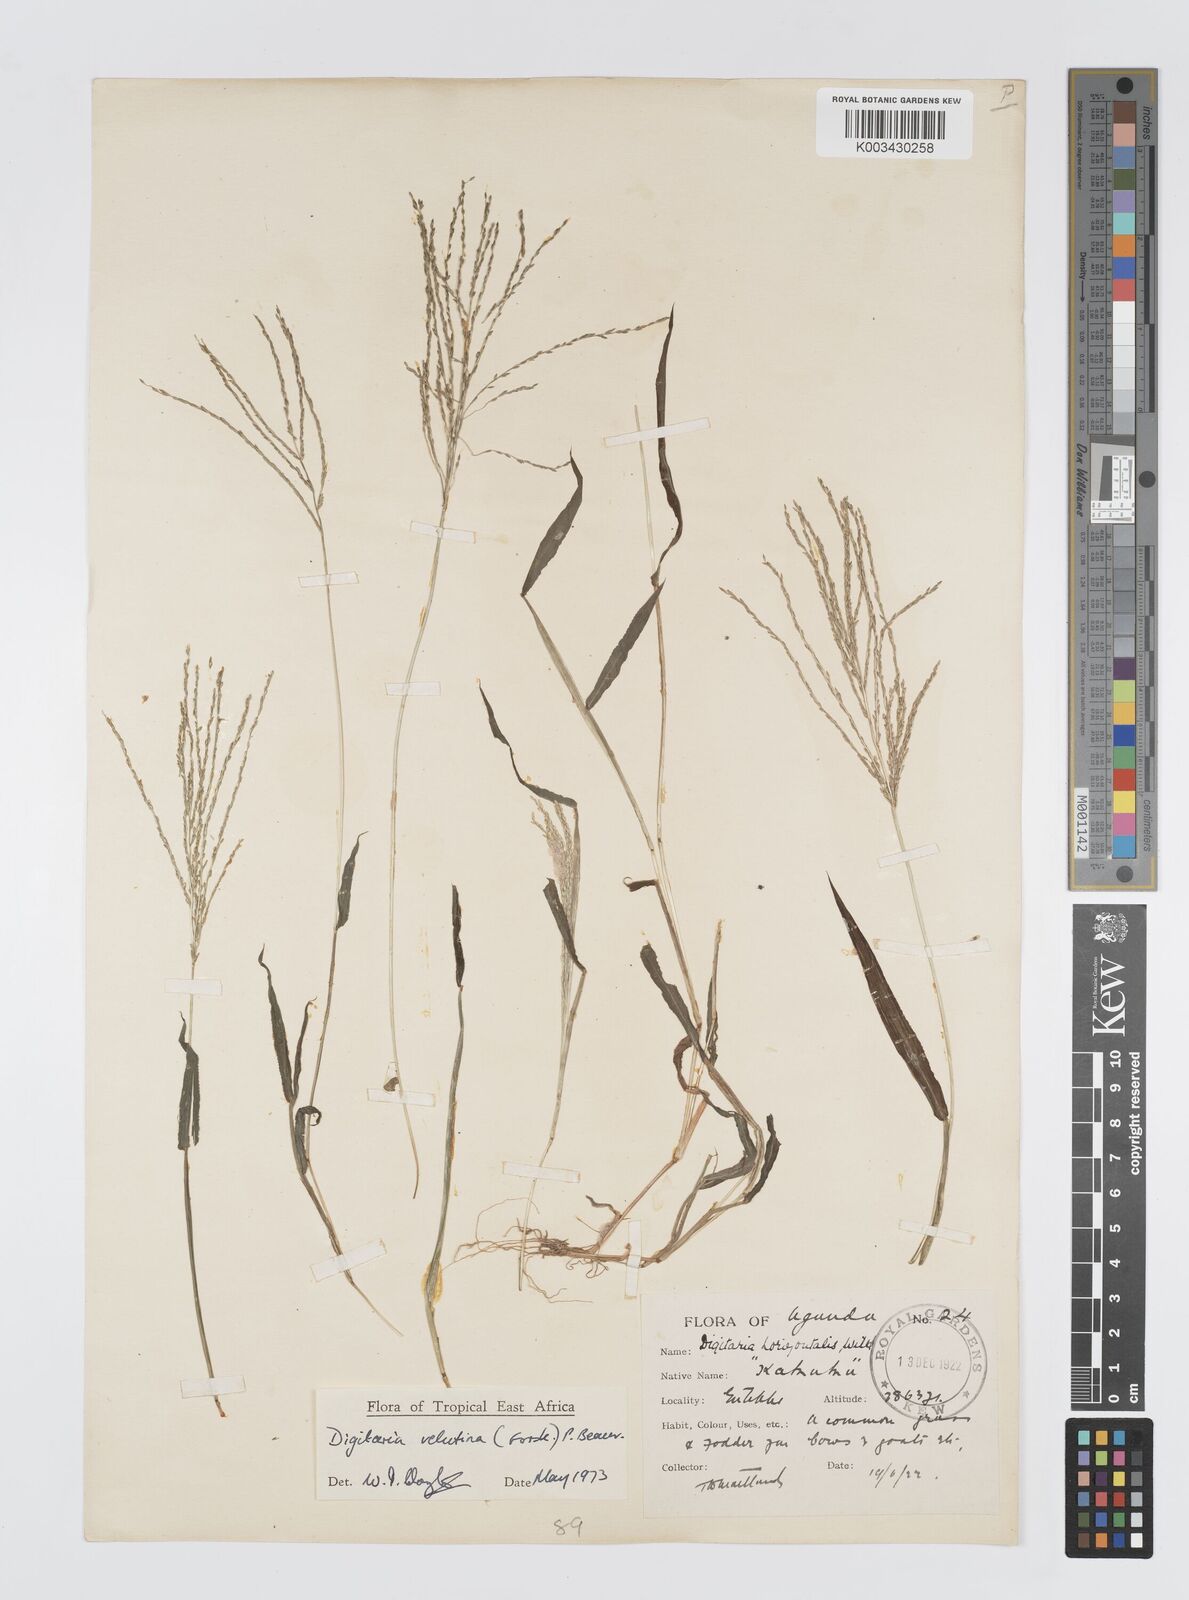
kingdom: Plantae
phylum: Tracheophyta
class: Liliopsida
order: Poales
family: Poaceae
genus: Digitaria
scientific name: Digitaria velutina
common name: Long-plume finger grass
